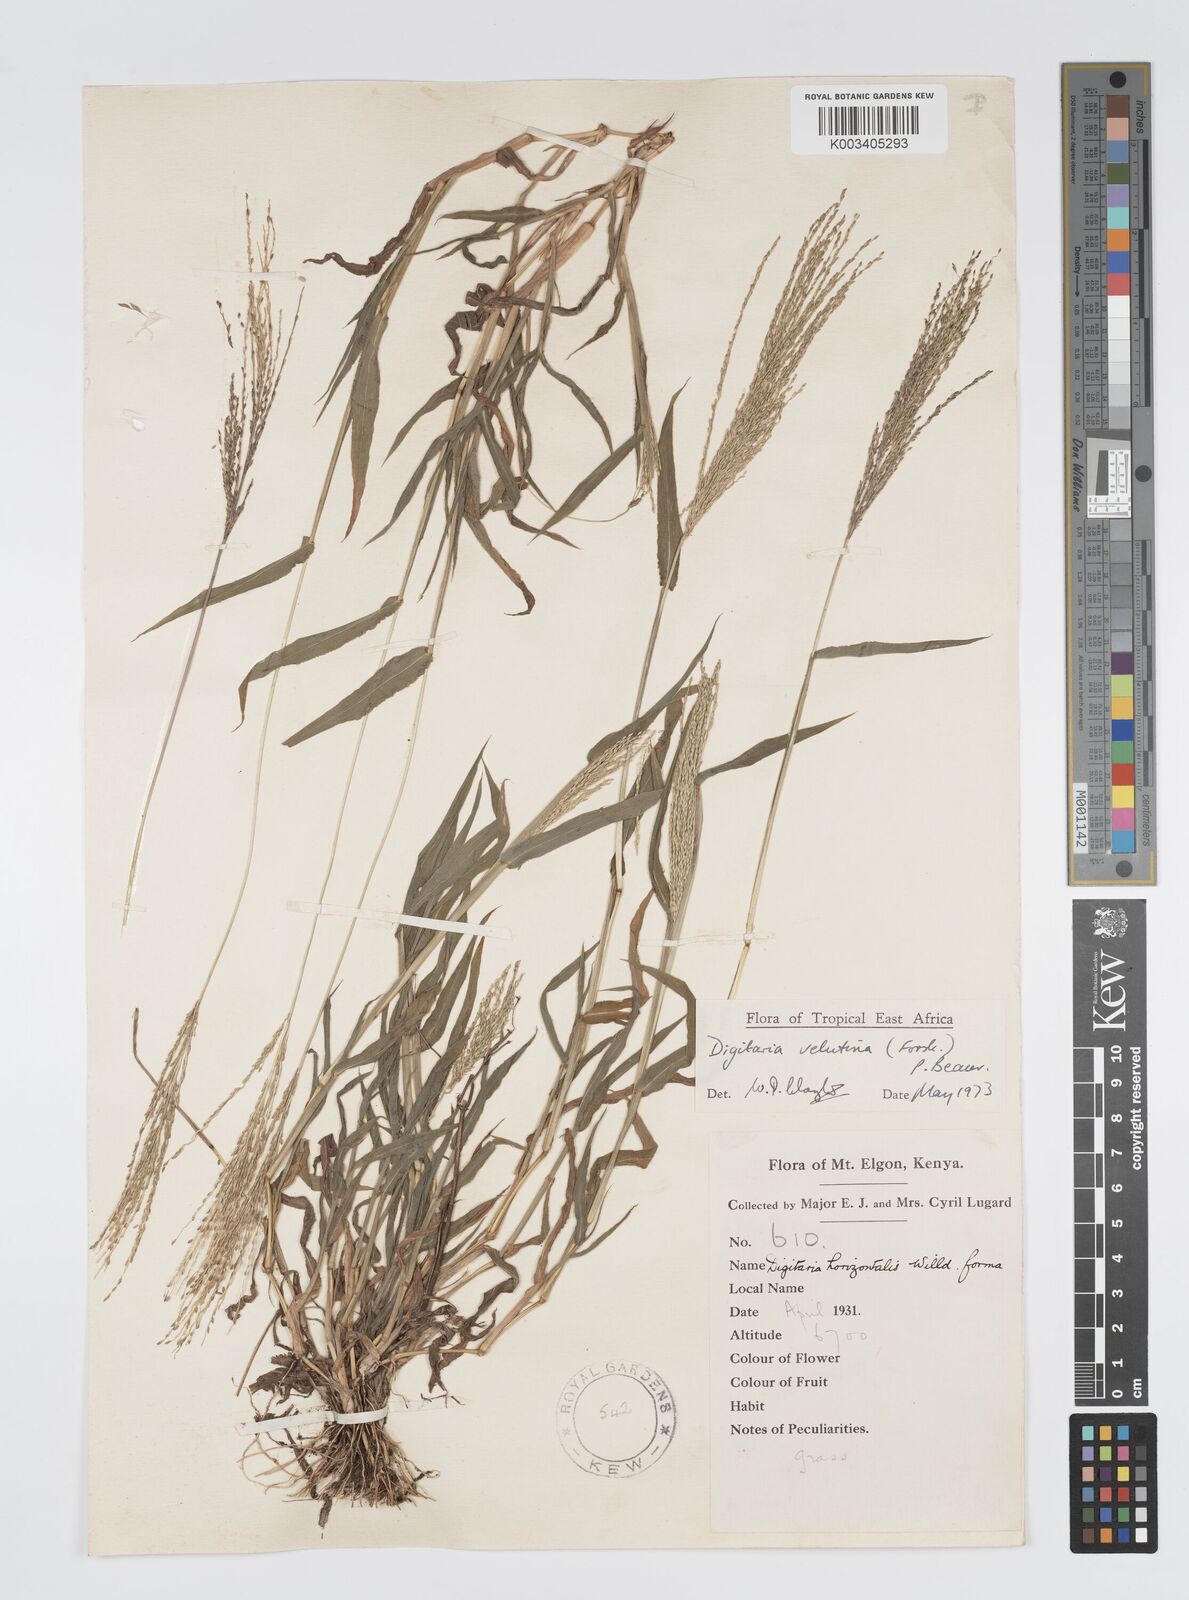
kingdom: Plantae
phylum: Tracheophyta
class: Liliopsida
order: Poales
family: Poaceae
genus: Digitaria
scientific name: Digitaria velutina
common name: Long-plume finger grass
